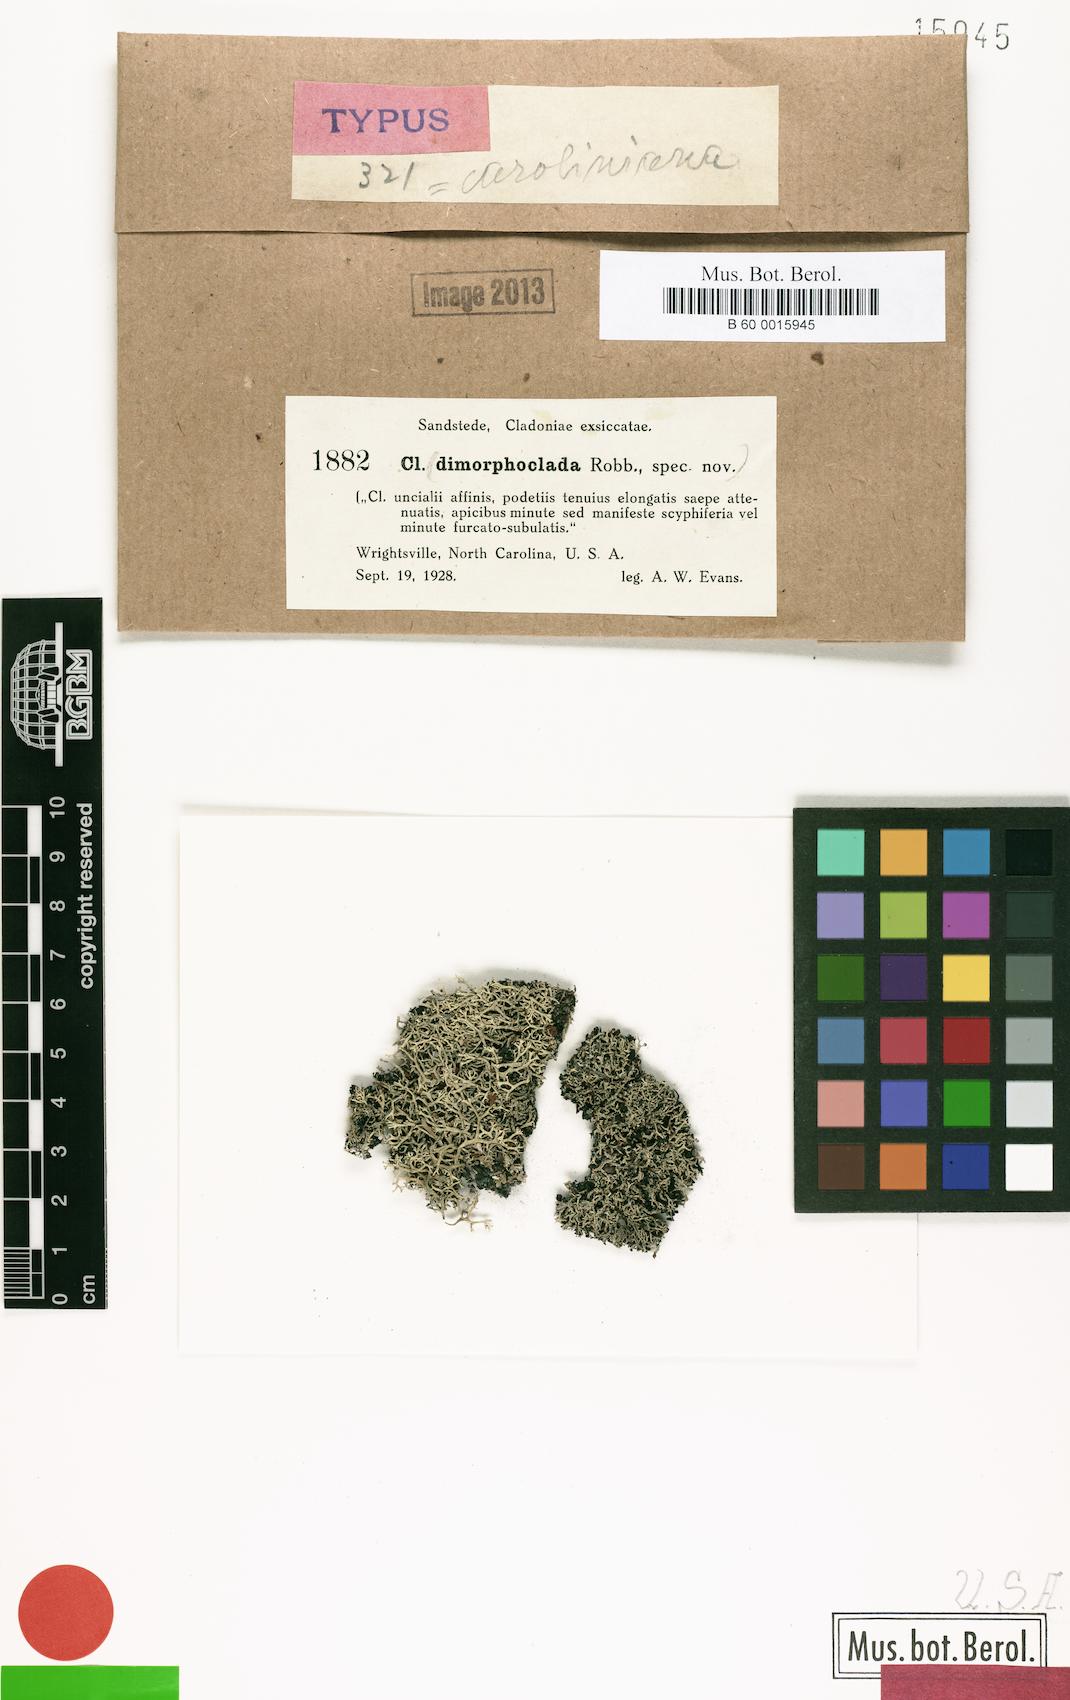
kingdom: Fungi
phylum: Ascomycota
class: Lecanoromycetes
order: Lecanorales
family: Cladoniaceae
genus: Cladonia
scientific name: Cladonia caroliniana
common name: Granite thorn
